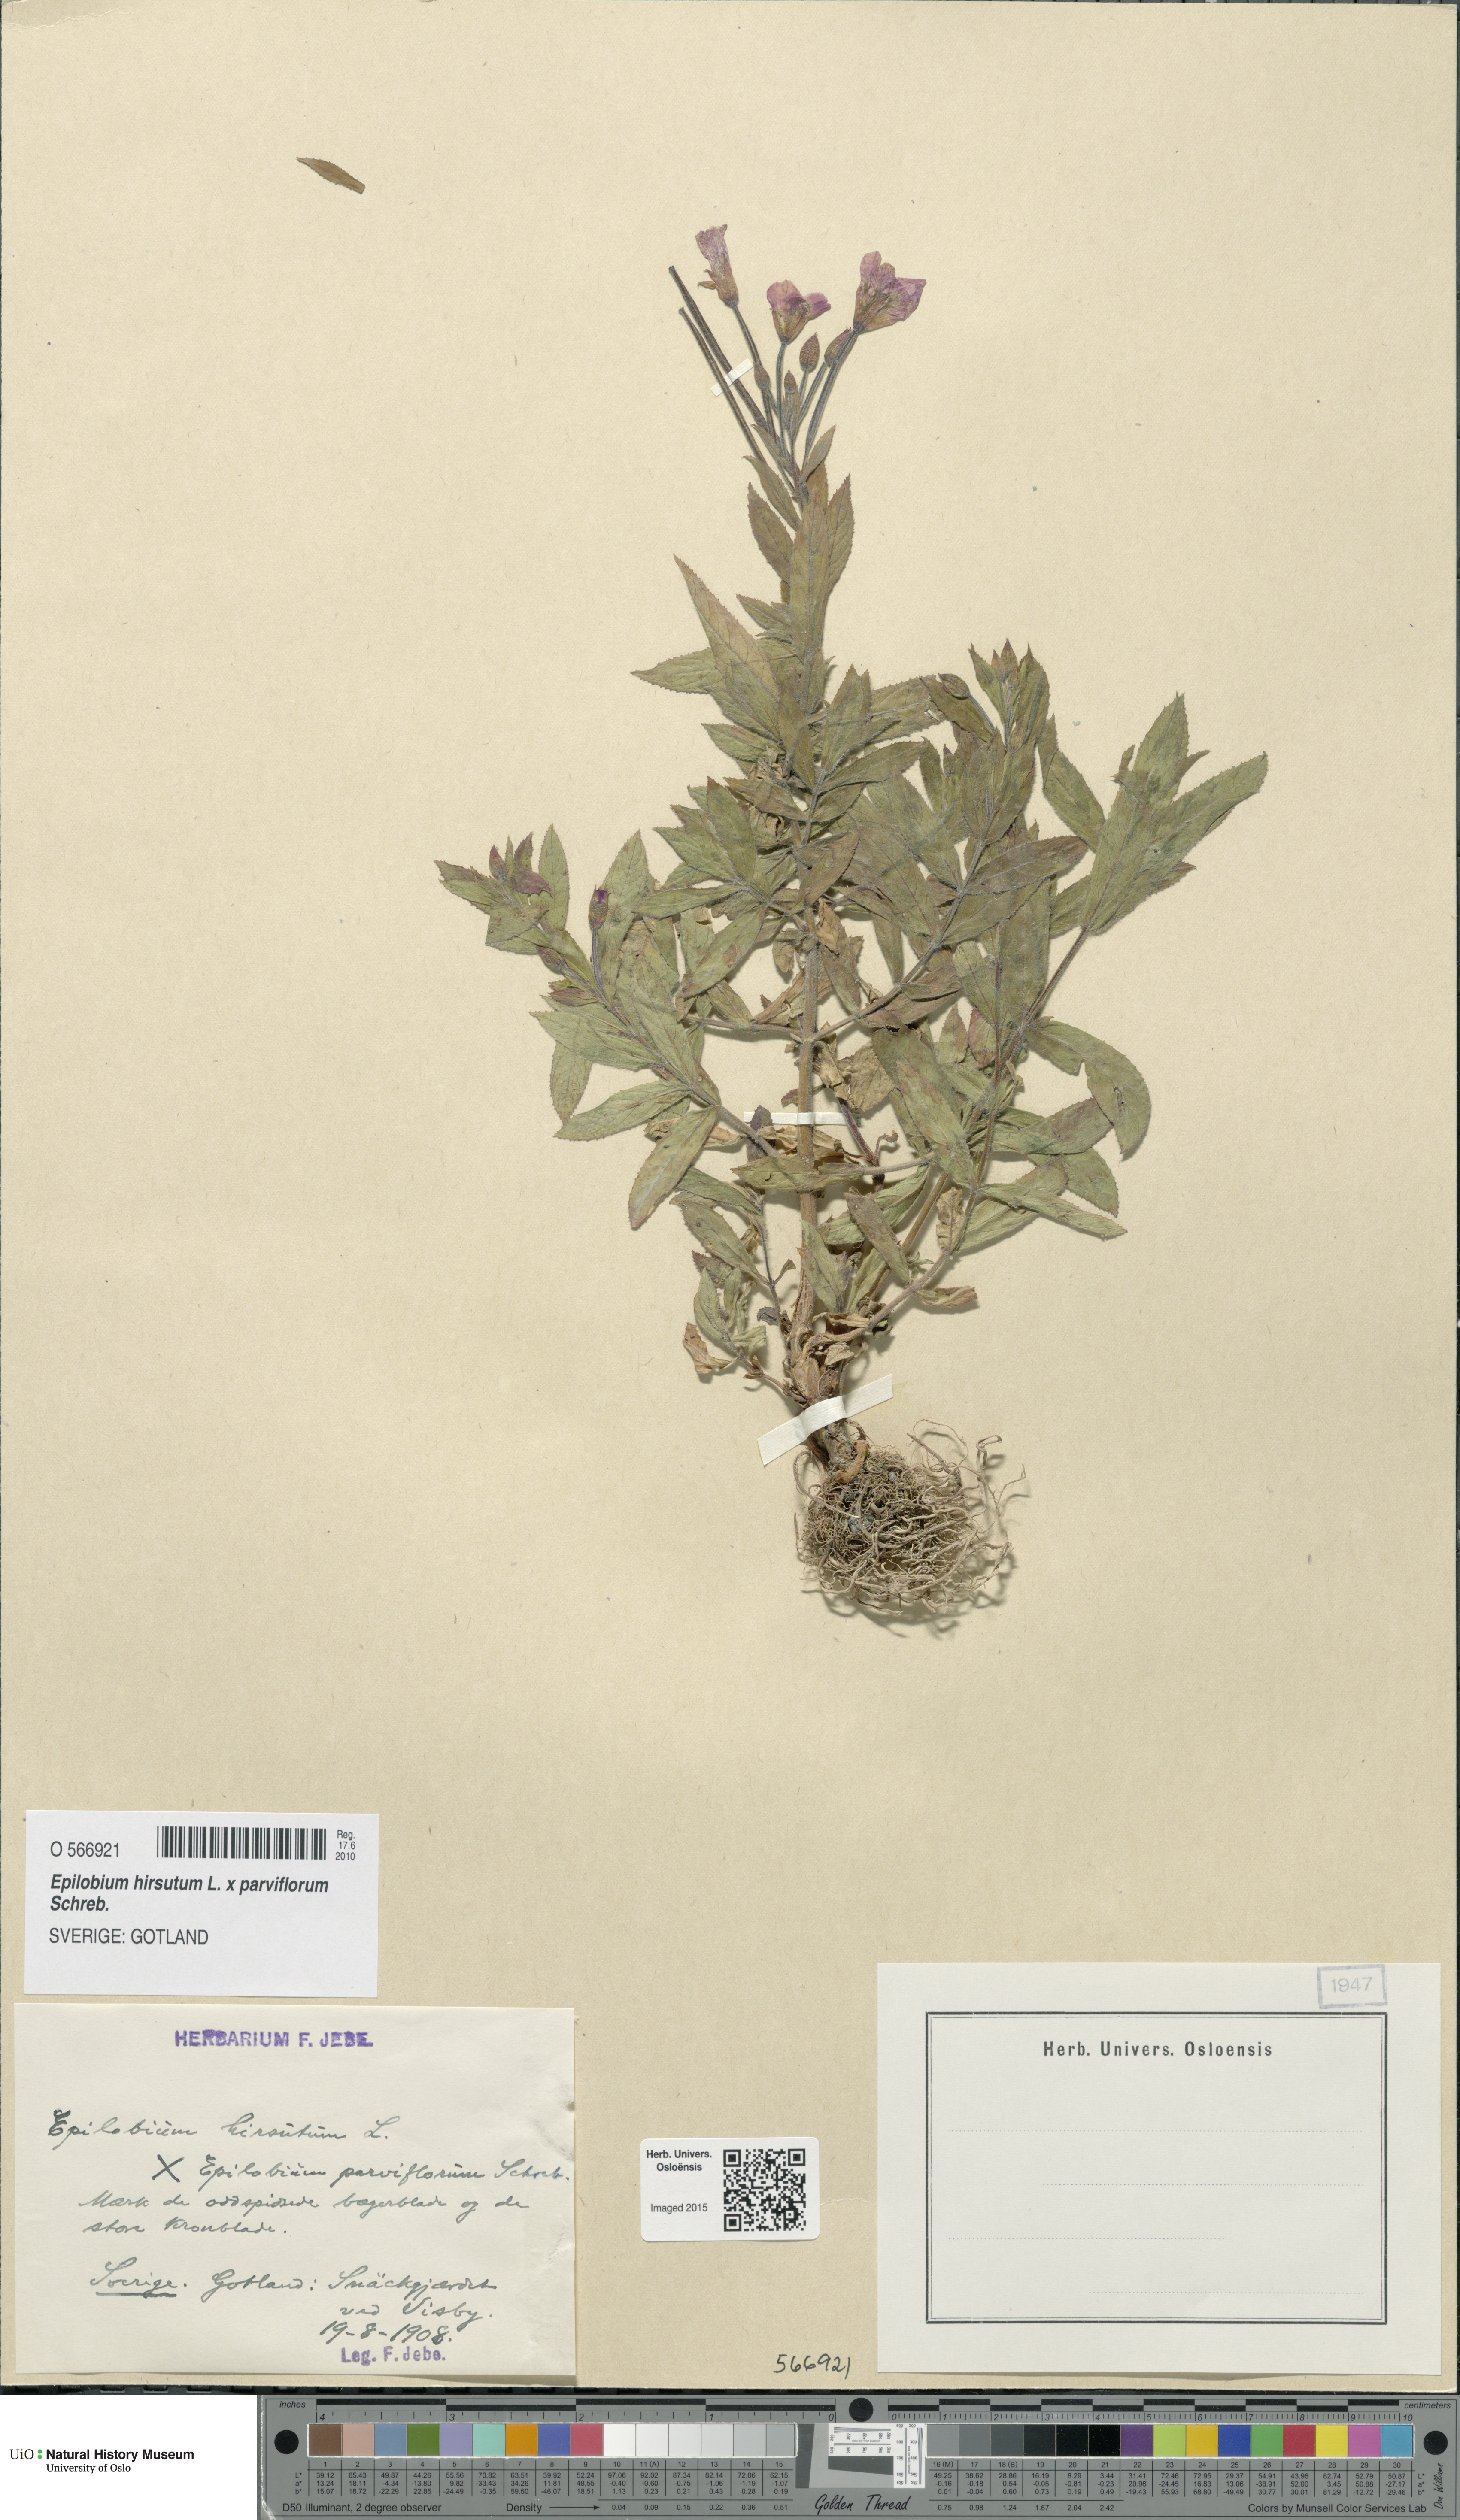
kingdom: Plantae
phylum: Tracheophyta
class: Magnoliopsida
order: Myrtales
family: Onagraceae
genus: Epilobium
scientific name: Epilobium
